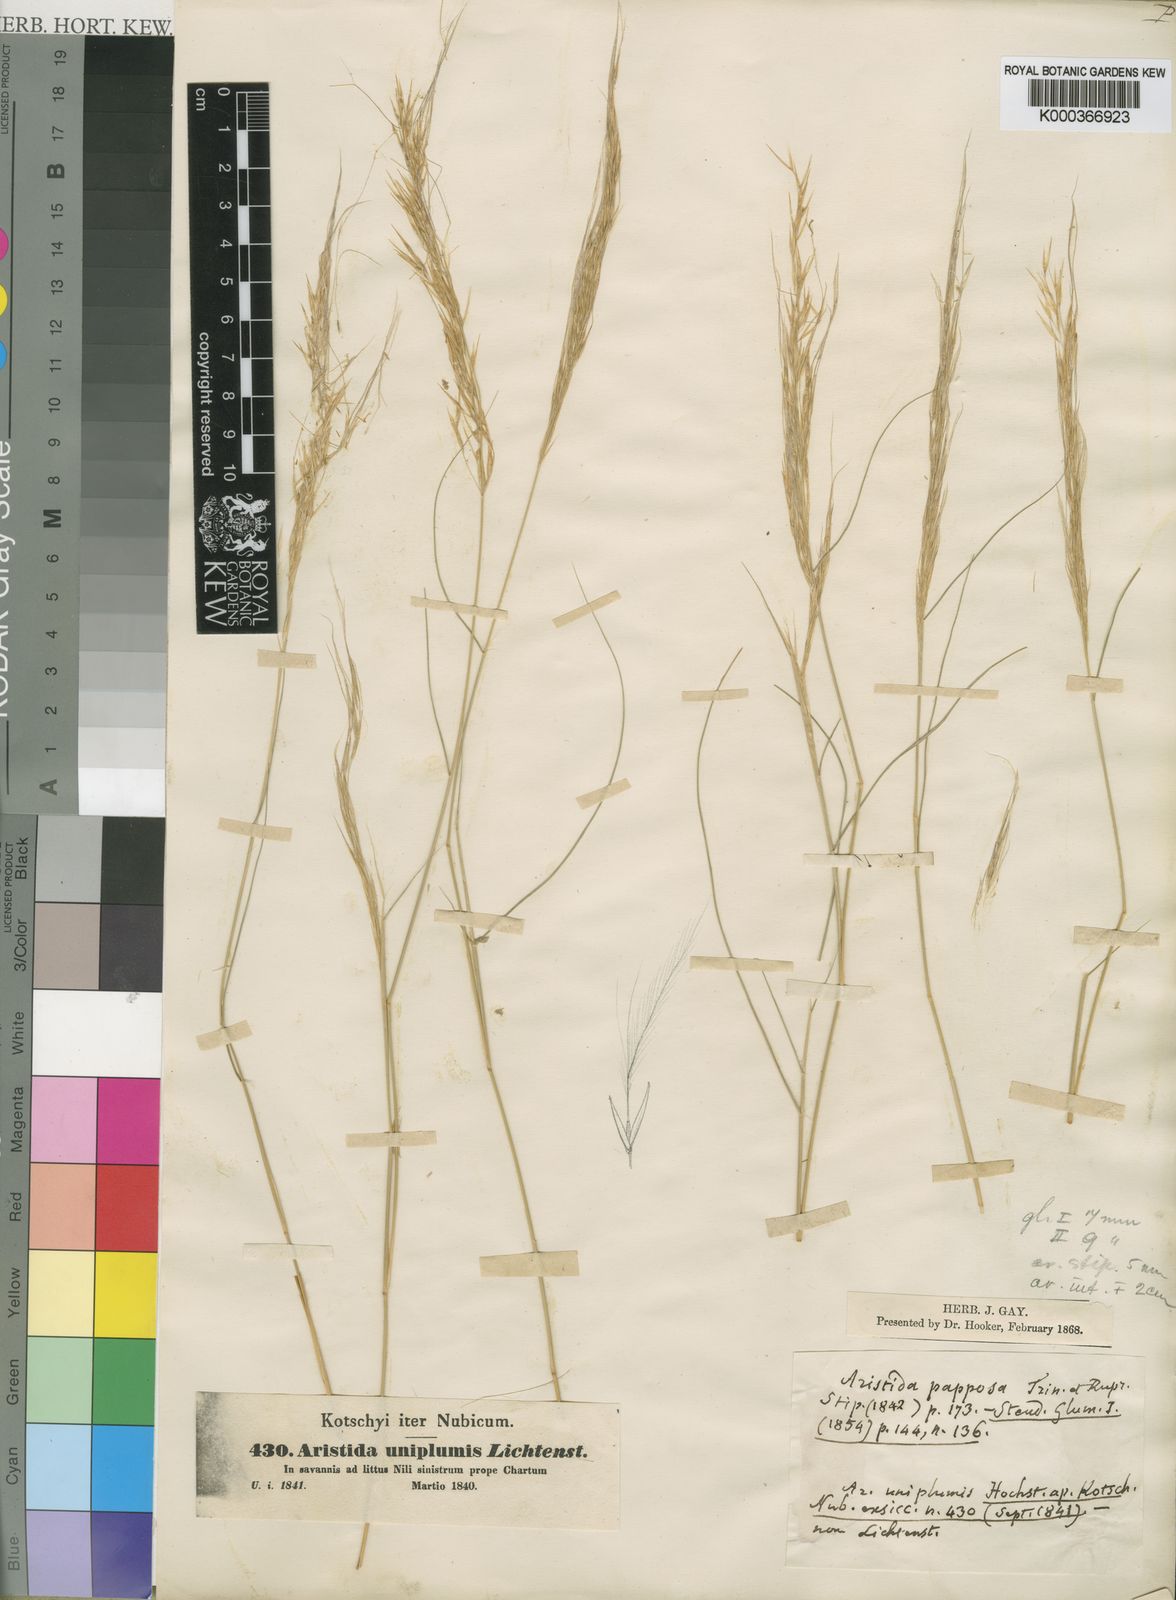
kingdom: Plantae
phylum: Tracheophyta
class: Liliopsida
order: Poales
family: Poaceae
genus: Stipagrostis
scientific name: Stipagrostis uniplumis
